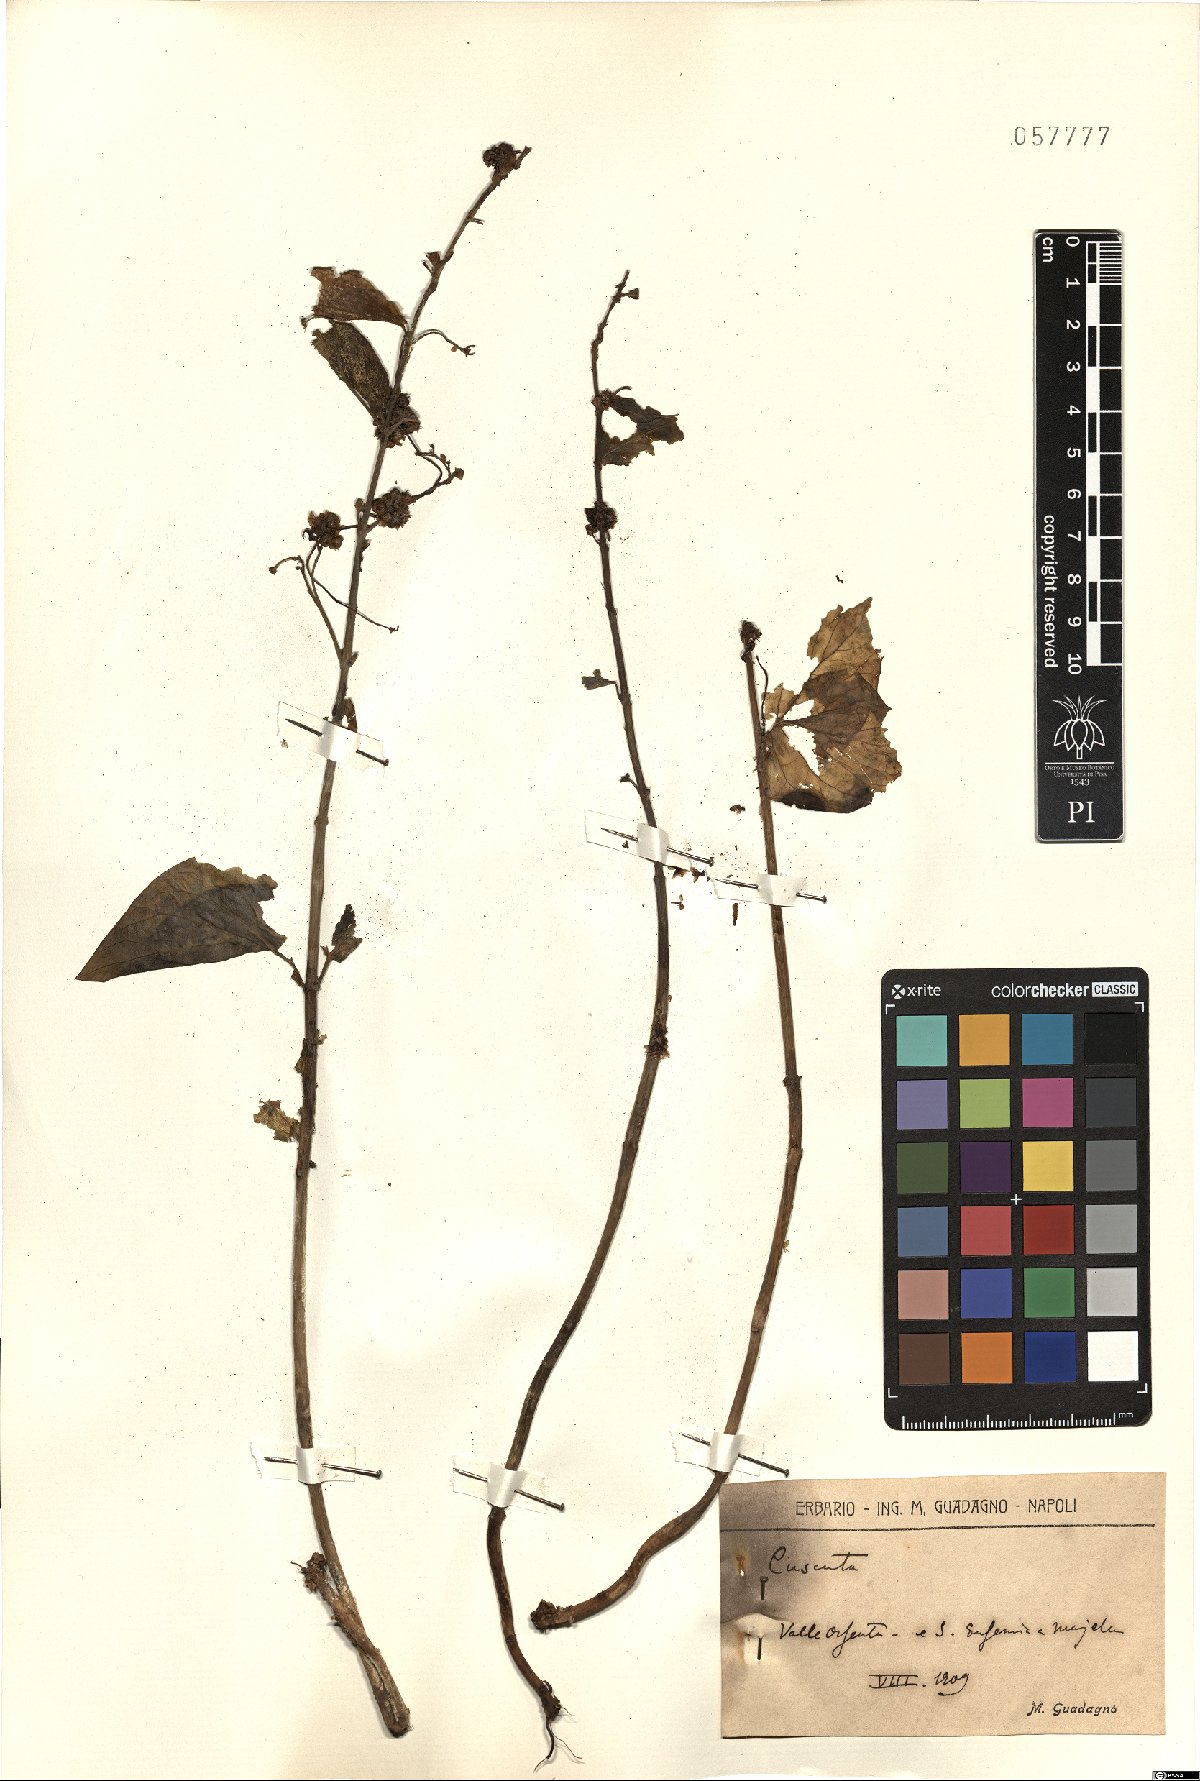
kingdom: Plantae
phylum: Tracheophyta
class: Magnoliopsida
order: Solanales
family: Convolvulaceae
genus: Cuscuta
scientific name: Cuscuta
